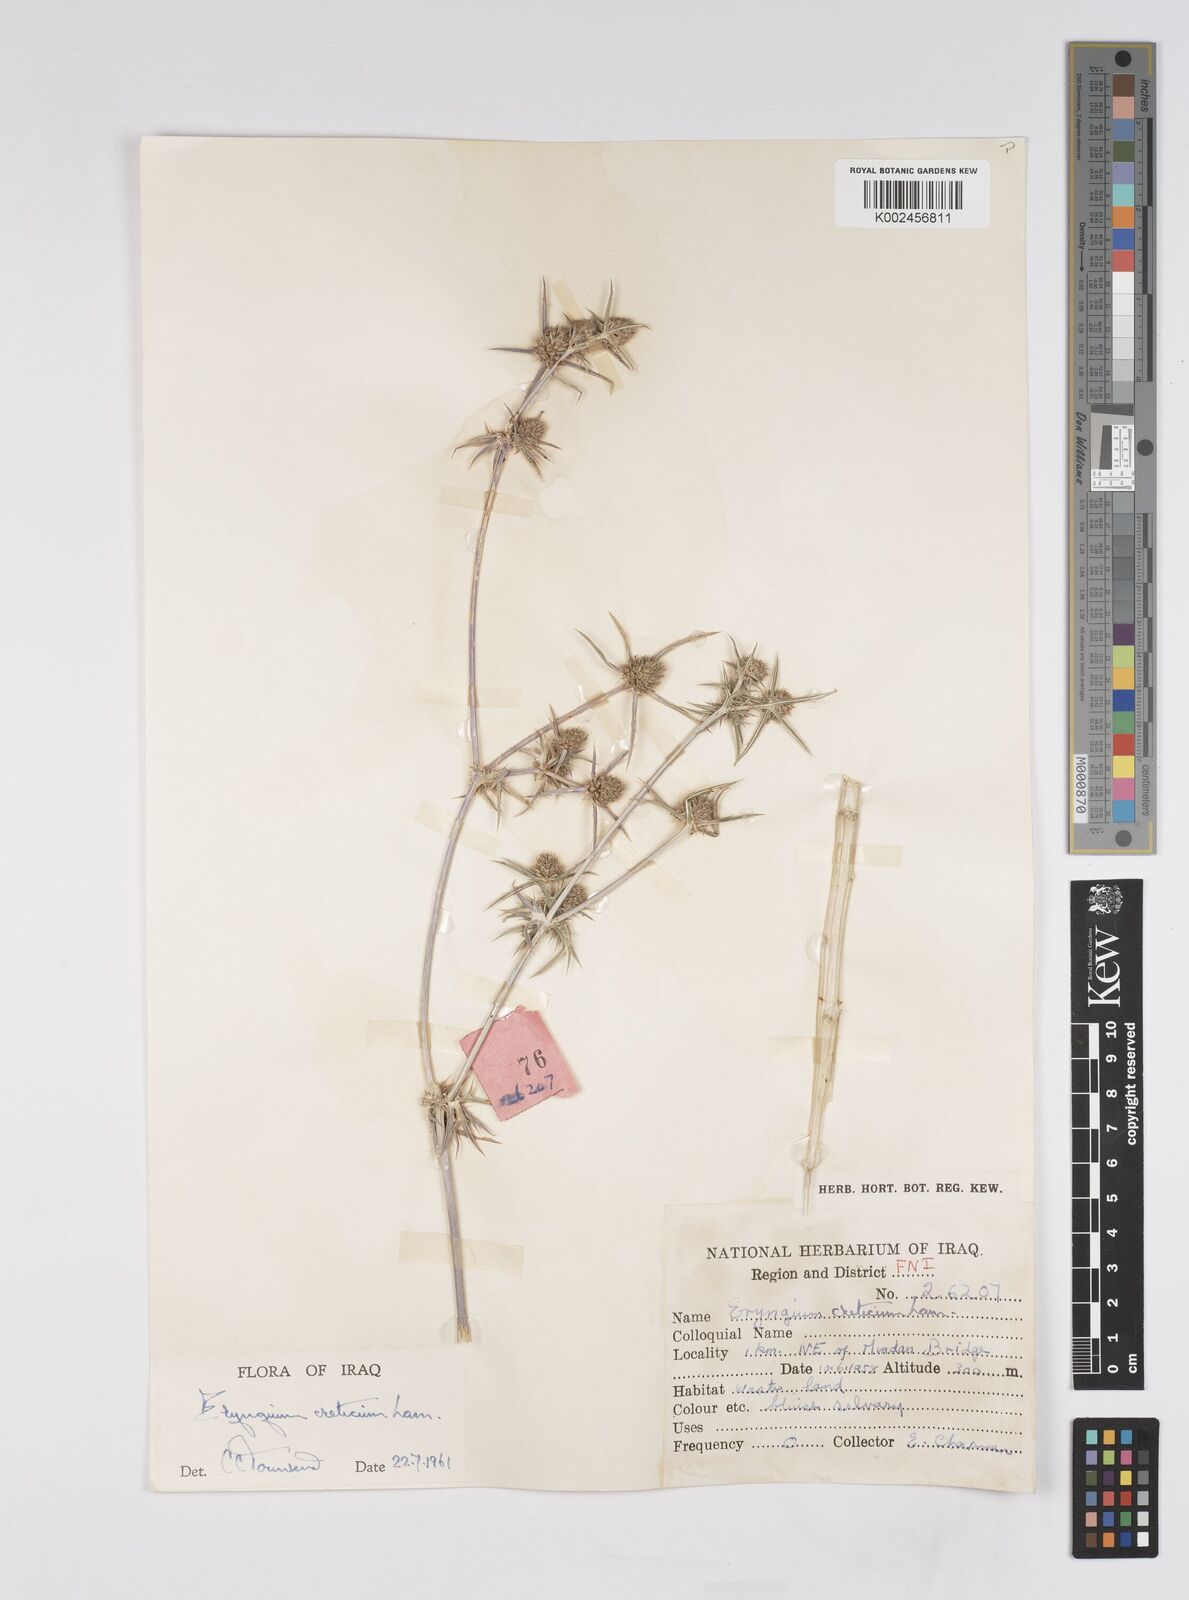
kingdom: Plantae
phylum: Tracheophyta
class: Magnoliopsida
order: Apiales
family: Apiaceae
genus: Eryngium
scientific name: Eryngium creticum
